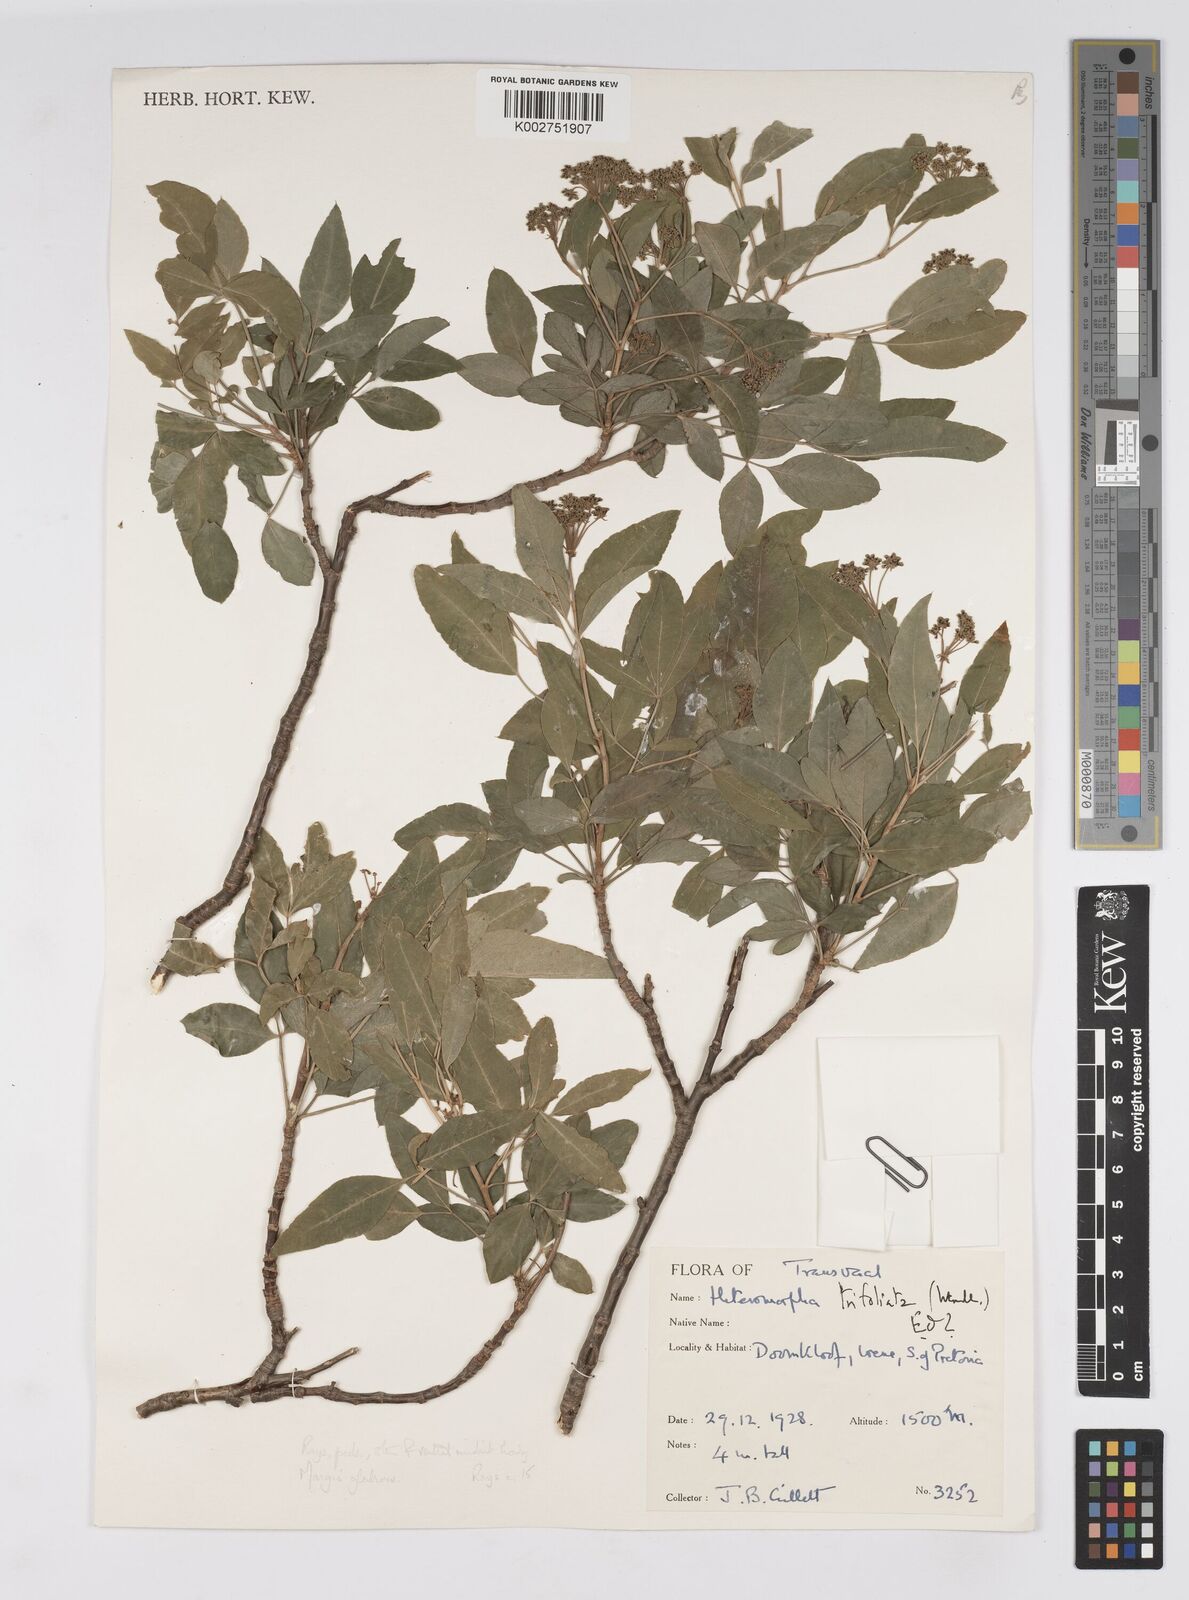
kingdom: Plantae
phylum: Tracheophyta
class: Magnoliopsida
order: Apiales
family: Apiaceae
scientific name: Apiaceae
